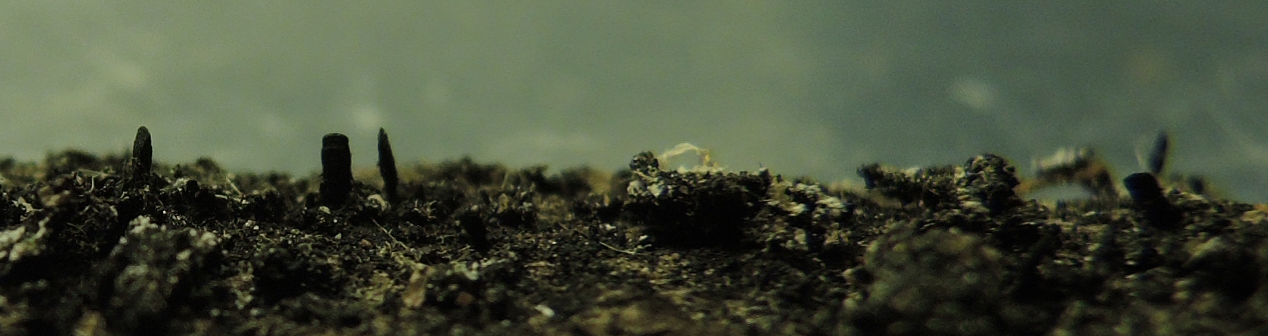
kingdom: Fungi
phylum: Ascomycota
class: Eurotiomycetes
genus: Glyphium
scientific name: Glyphium elatum
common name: kuløkse
